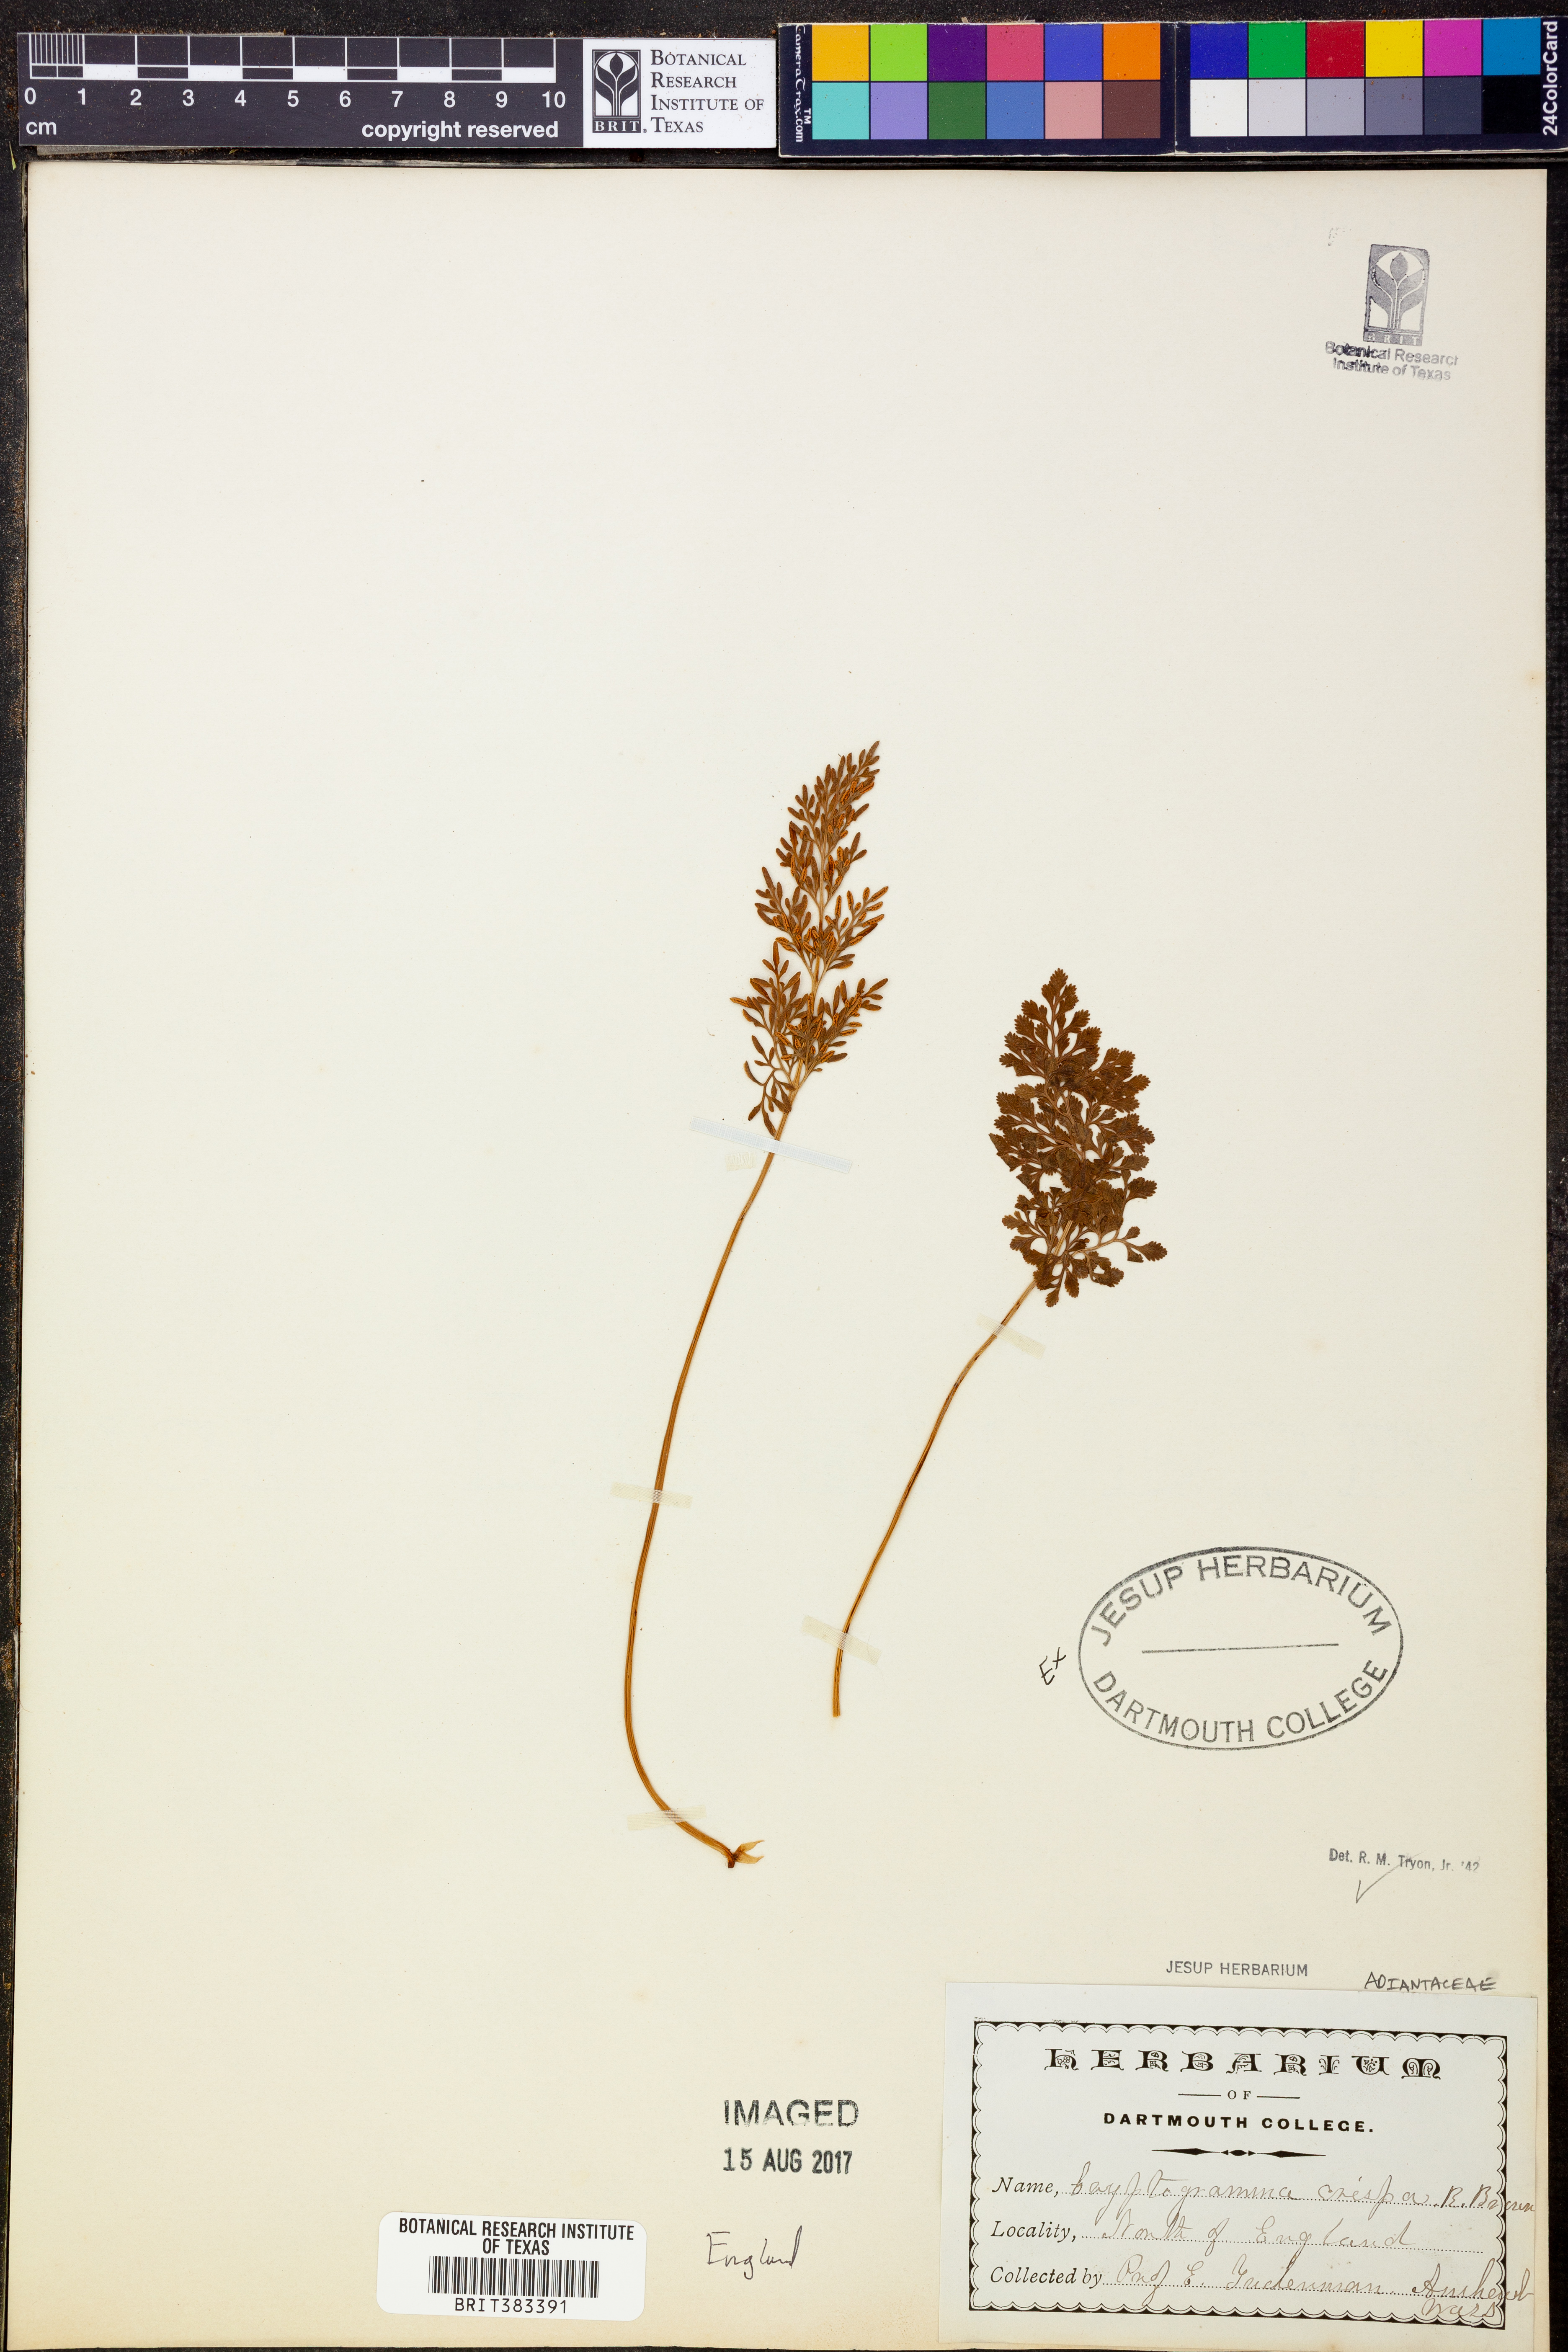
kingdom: Plantae
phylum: Tracheophyta
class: Polypodiopsida
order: Polypodiales
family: Pteridaceae
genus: Cryptogramma
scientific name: Cryptogramma crispa
